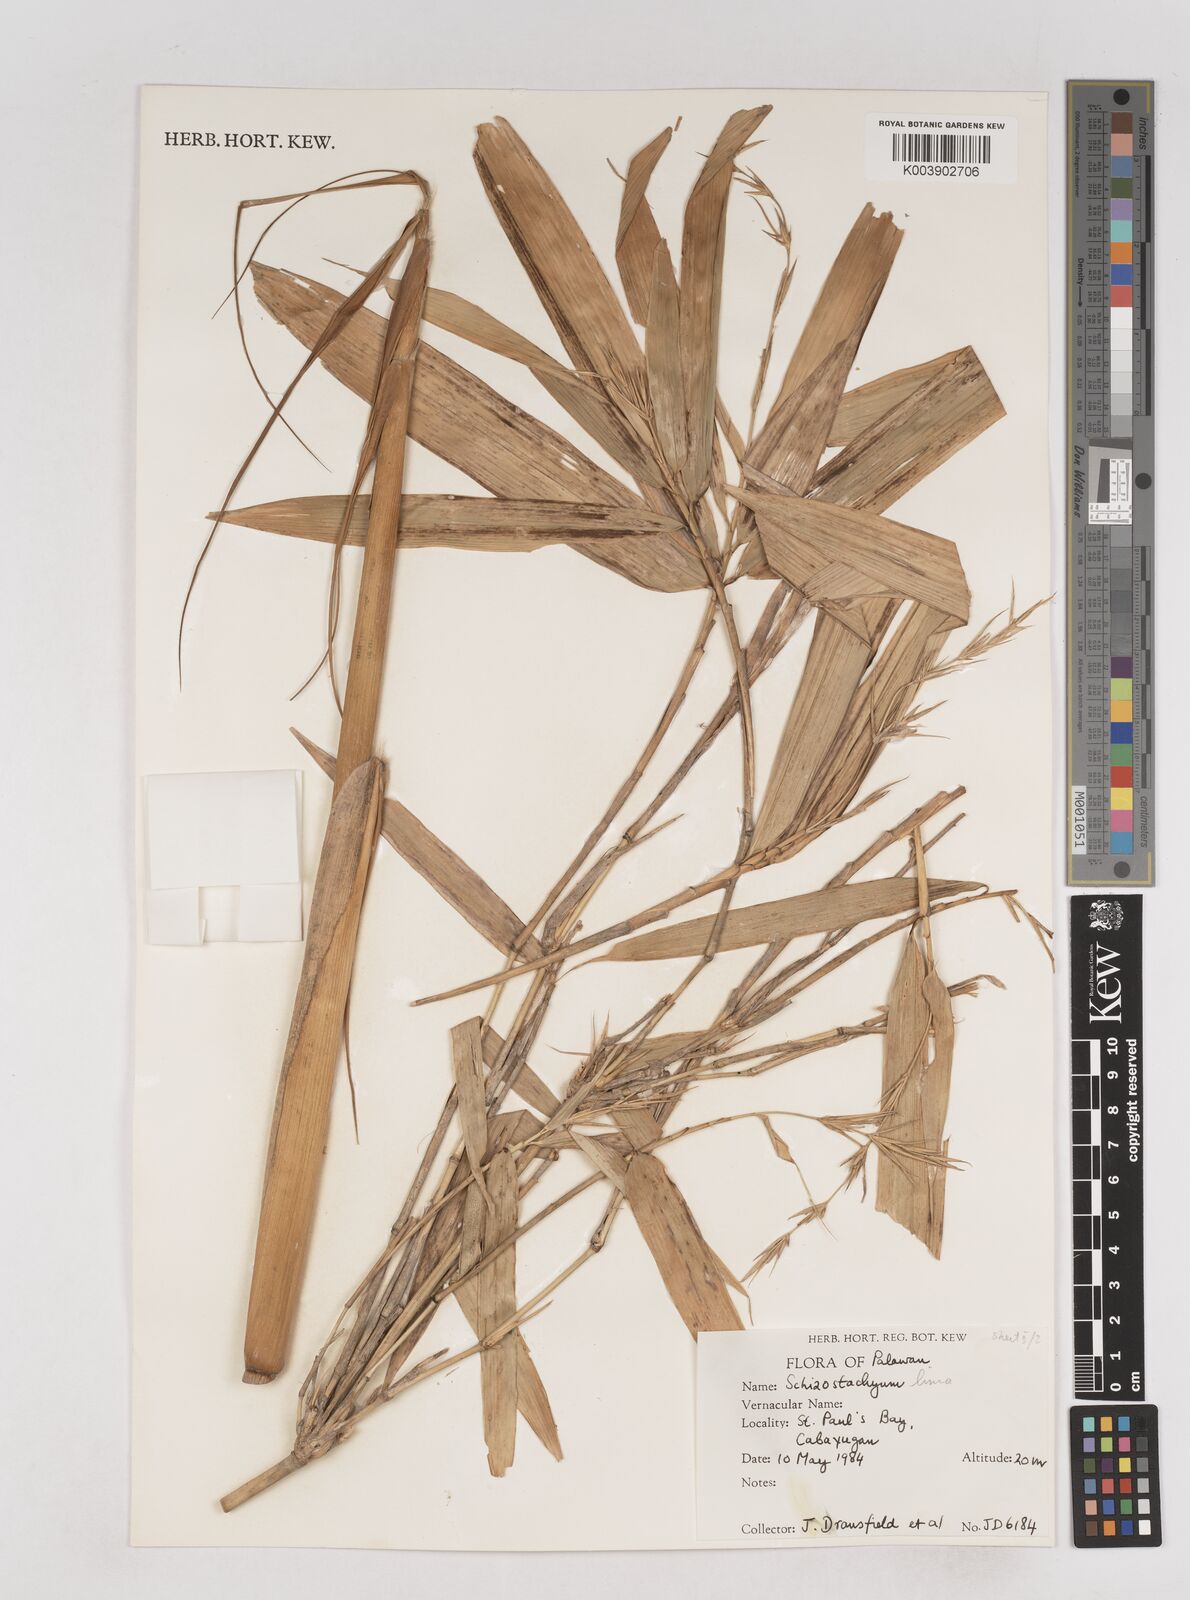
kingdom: Plantae
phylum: Tracheophyta
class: Liliopsida
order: Poales
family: Poaceae
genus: Schizostachyum
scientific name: Schizostachyum
